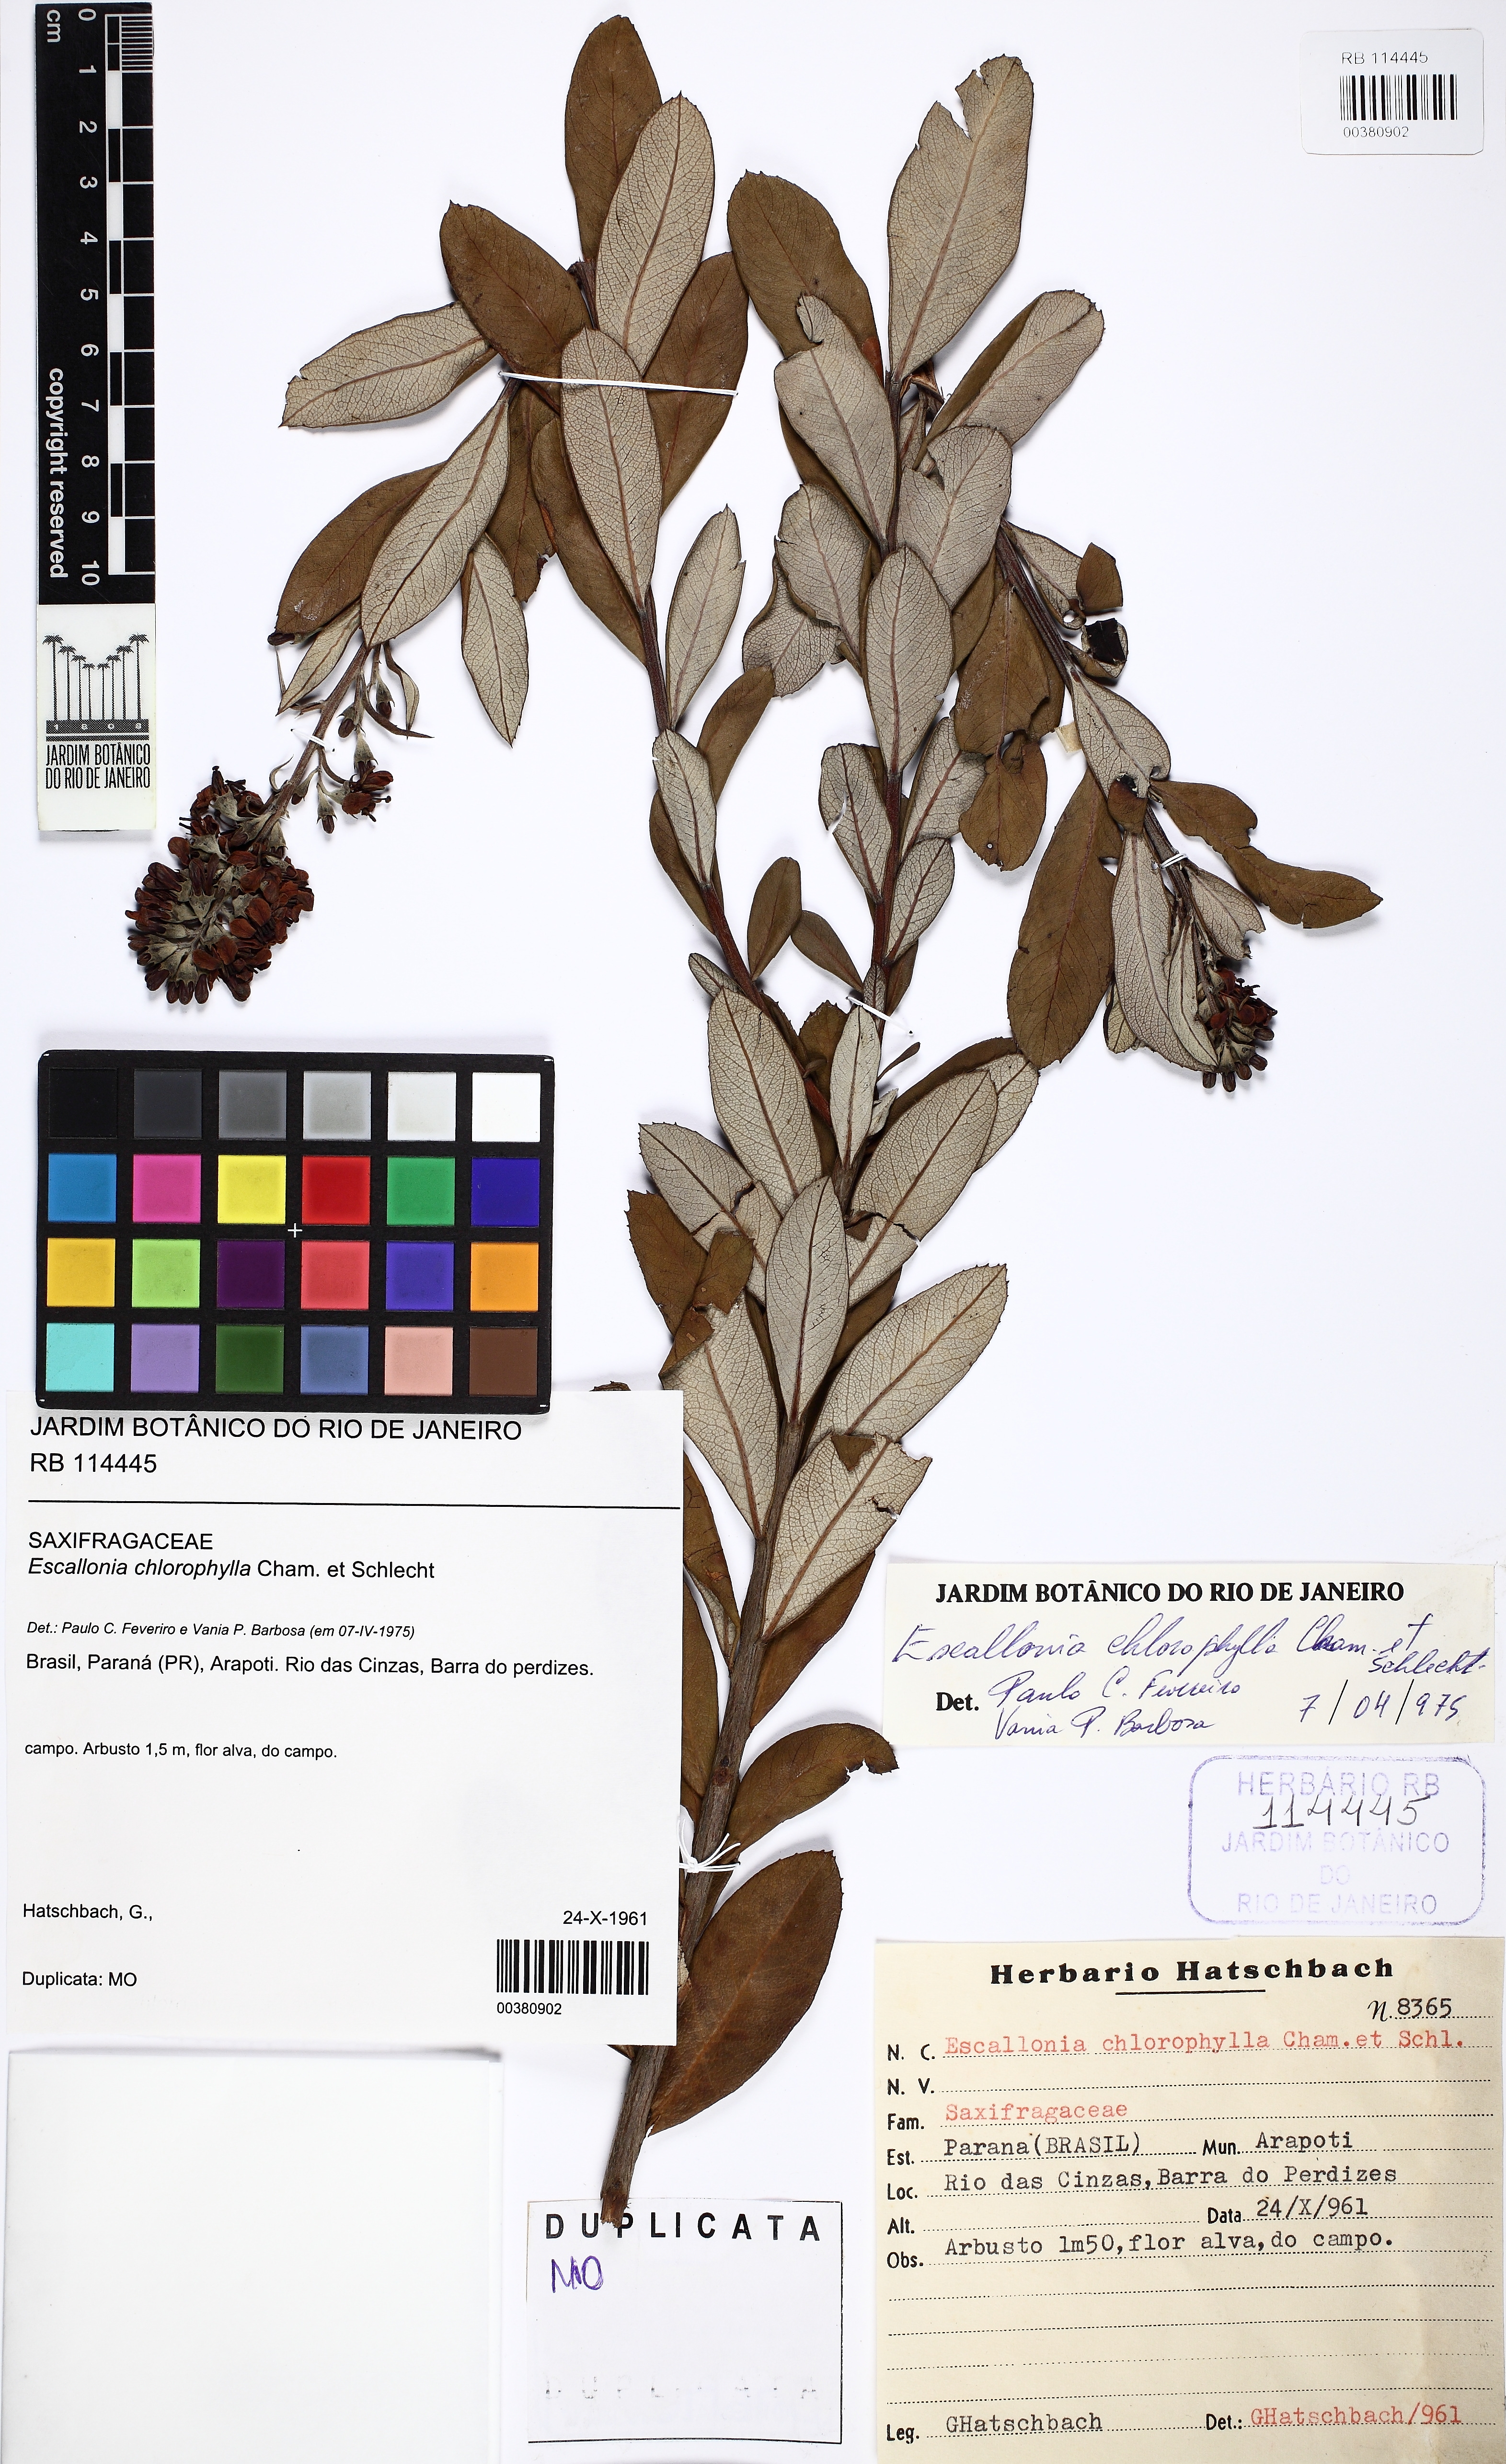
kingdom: Plantae
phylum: Tracheophyta
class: Magnoliopsida
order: Escalloniales
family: Escalloniaceae
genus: Escallonia
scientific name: Escallonia chlorophylla
